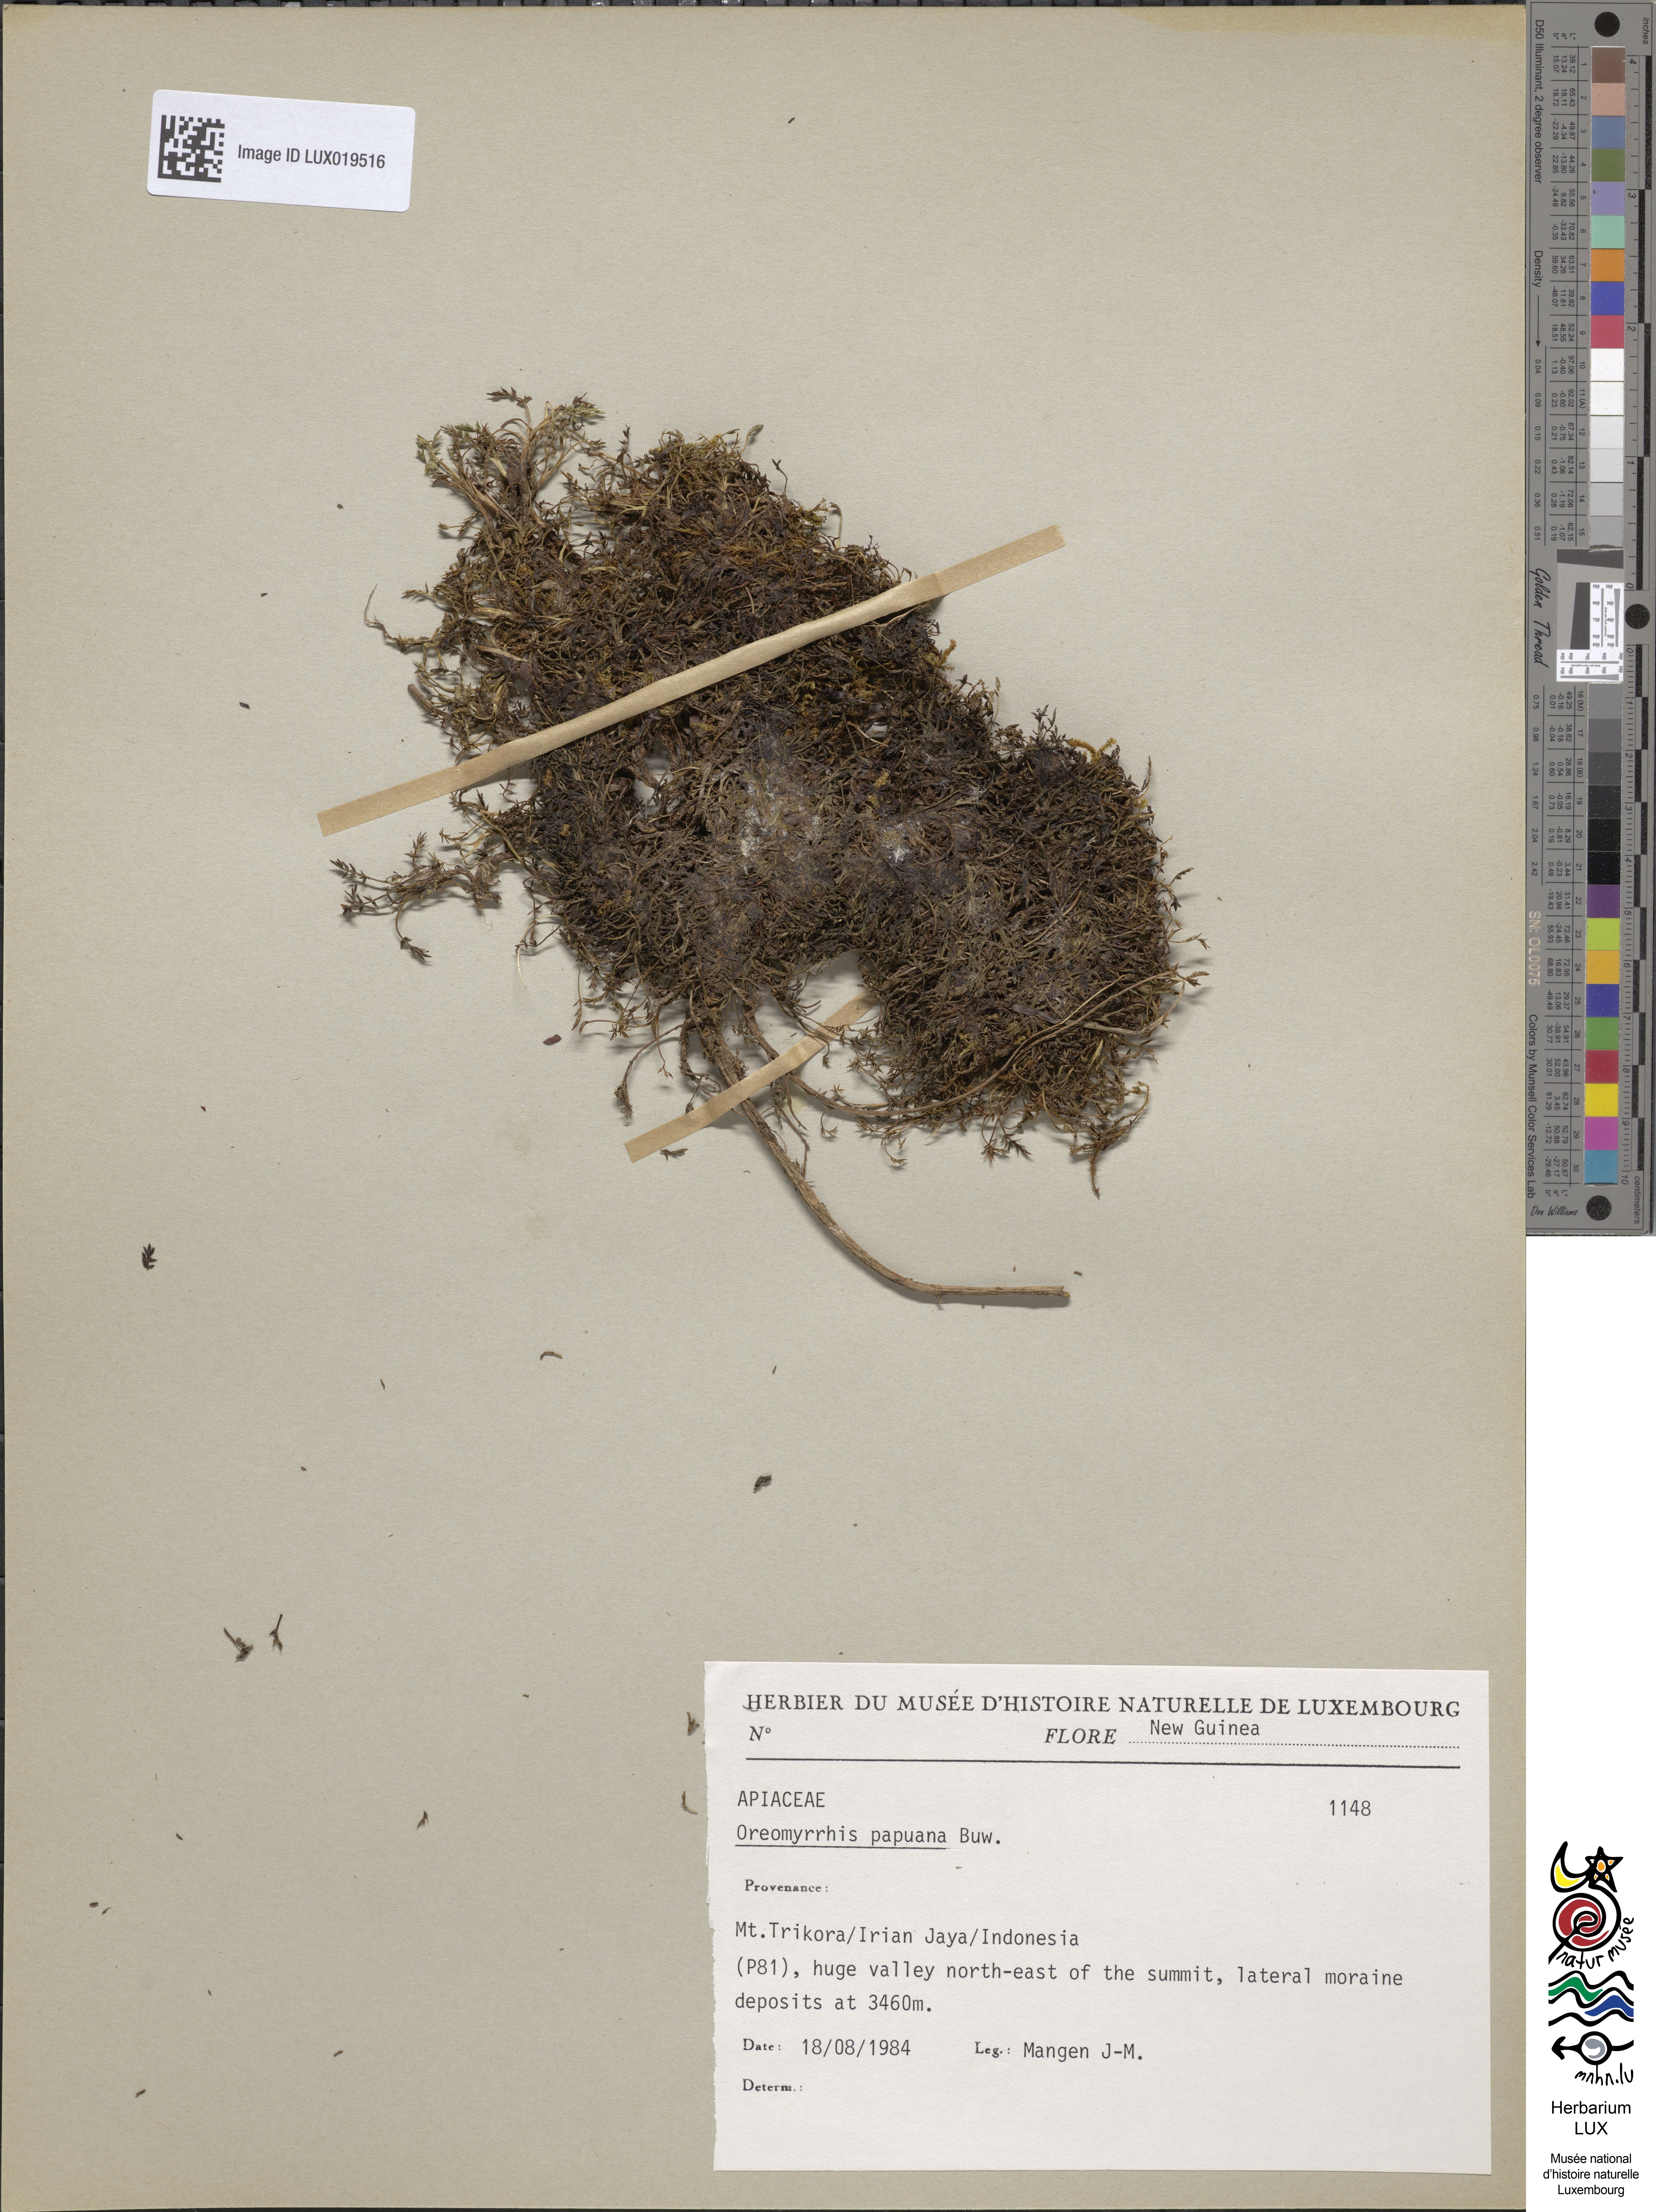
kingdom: Plantae
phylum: Tracheophyta
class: Magnoliopsida
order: Apiales
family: Apiaceae
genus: Chaerophyllum
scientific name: Chaerophyllum papuanum
